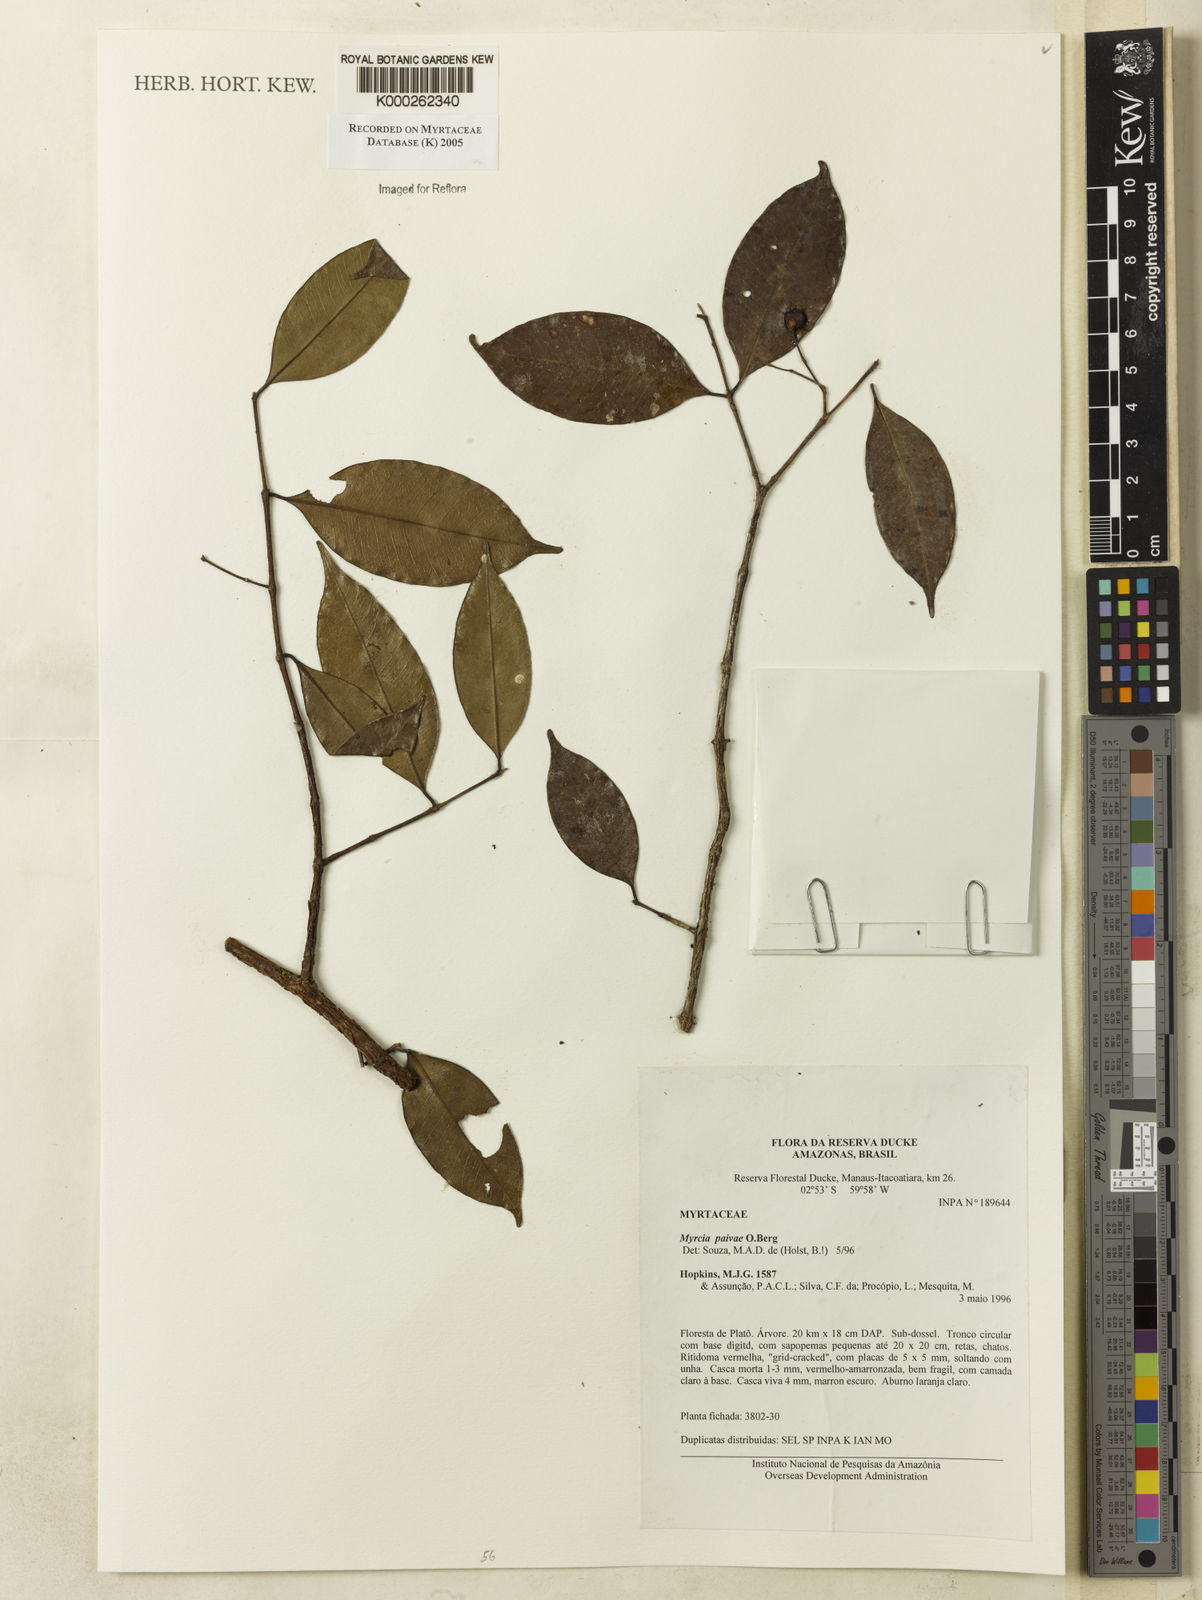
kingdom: Plantae
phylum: Tracheophyta
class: Magnoliopsida
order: Myrtales
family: Myrtaceae
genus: Myrcia
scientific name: Myrcia paivae
